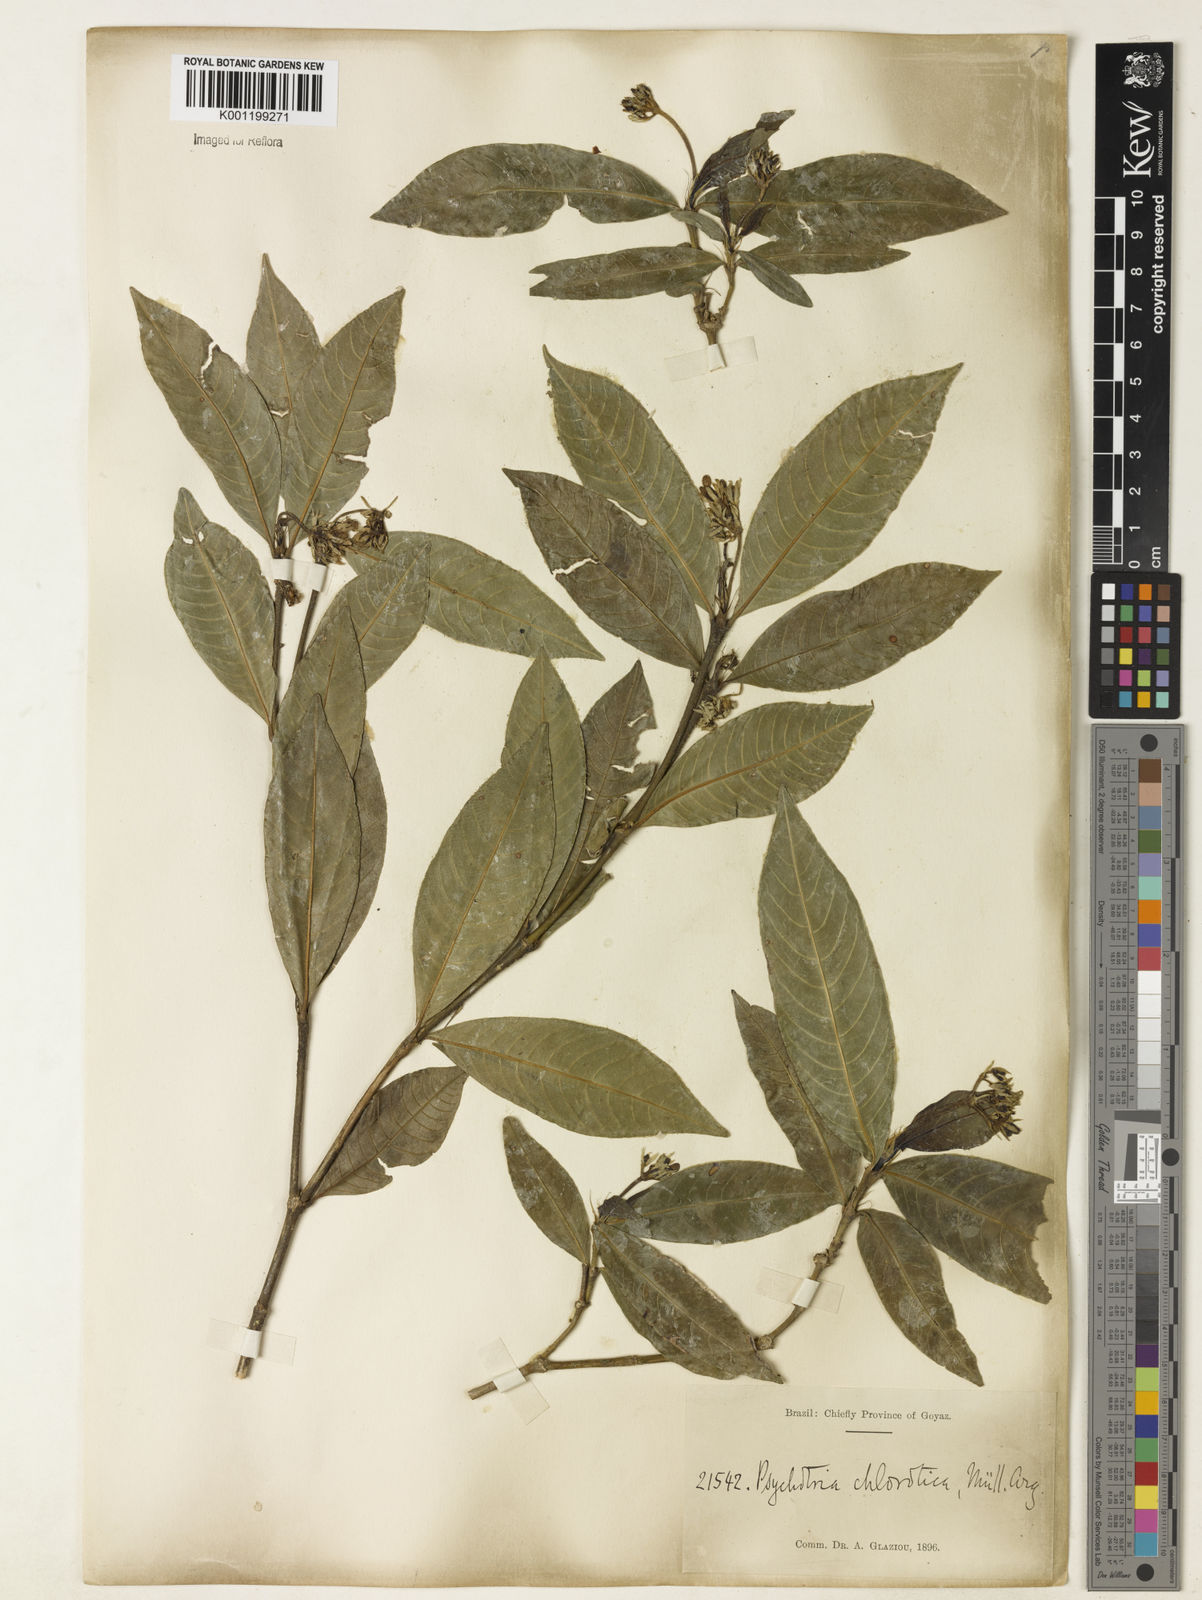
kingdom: Plantae
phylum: Tracheophyta
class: Magnoliopsida
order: Gentianales
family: Rubiaceae
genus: Palicourea
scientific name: Palicourea violacea
